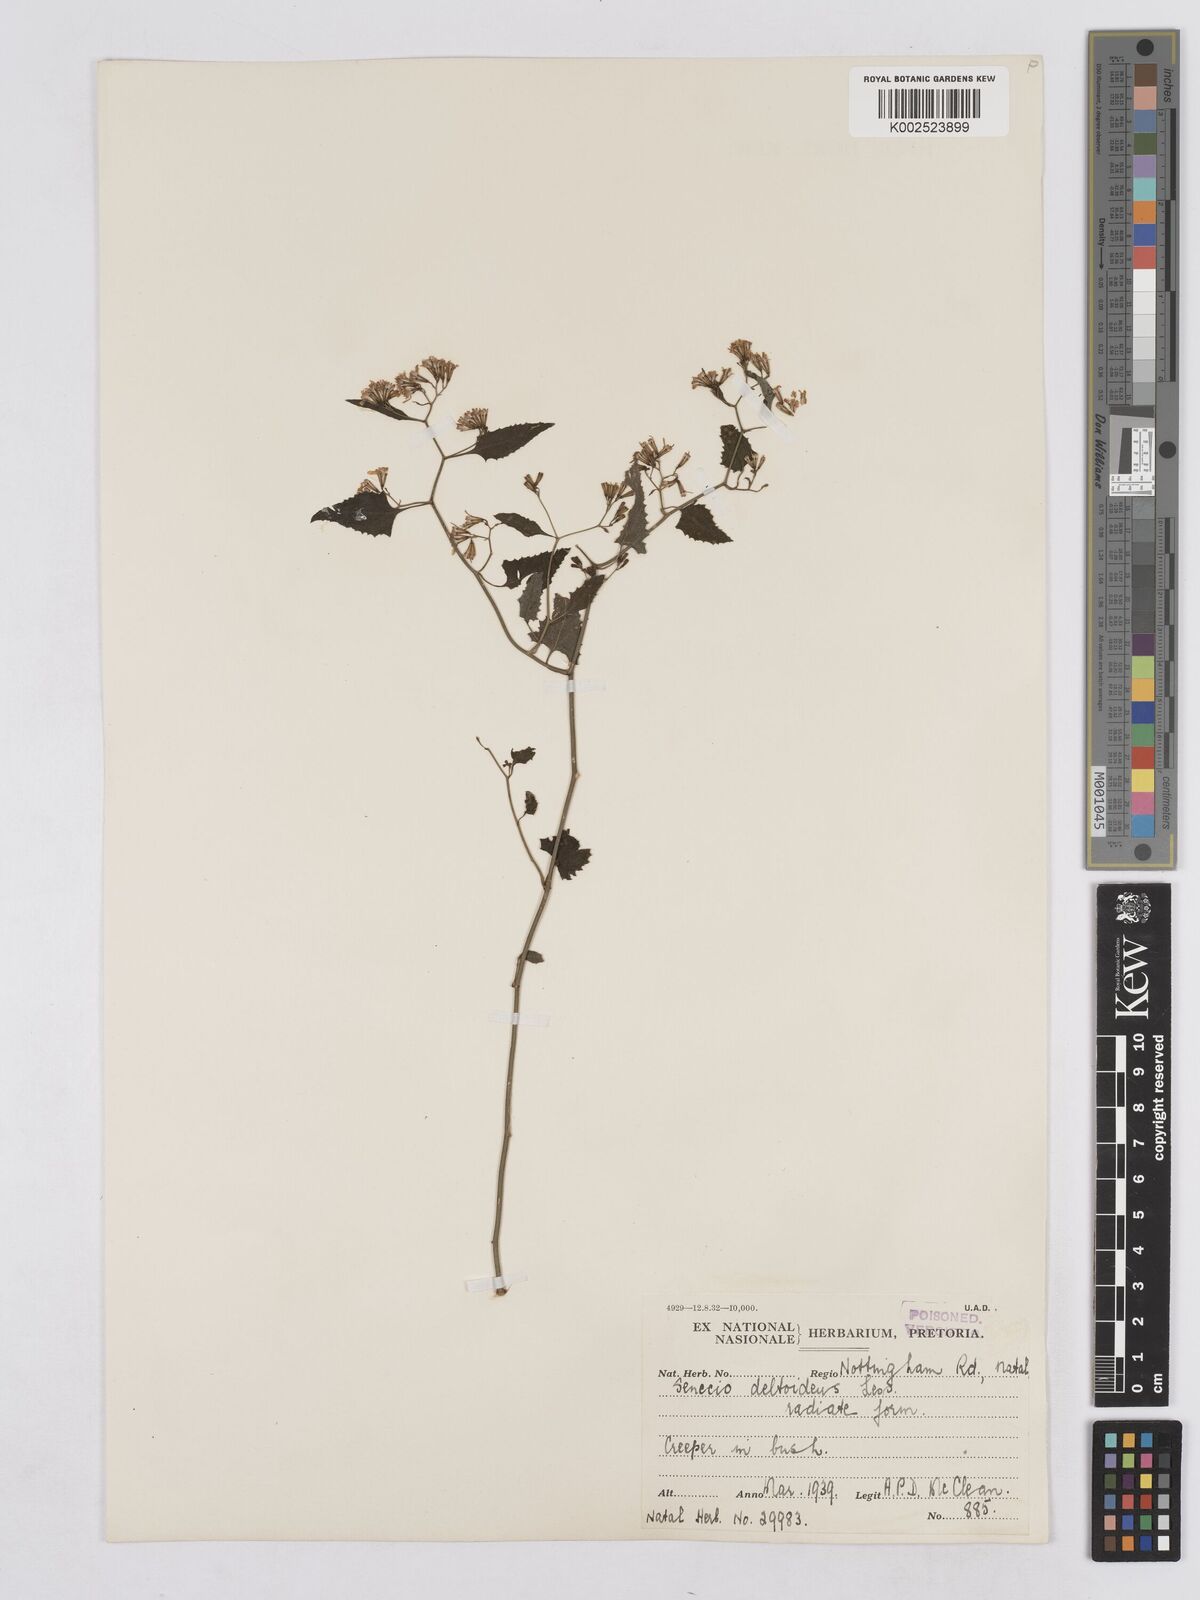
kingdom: Plantae
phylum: Tracheophyta
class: Magnoliopsida
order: Asterales
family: Asteraceae
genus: Senecio
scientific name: Senecio deltoideus
